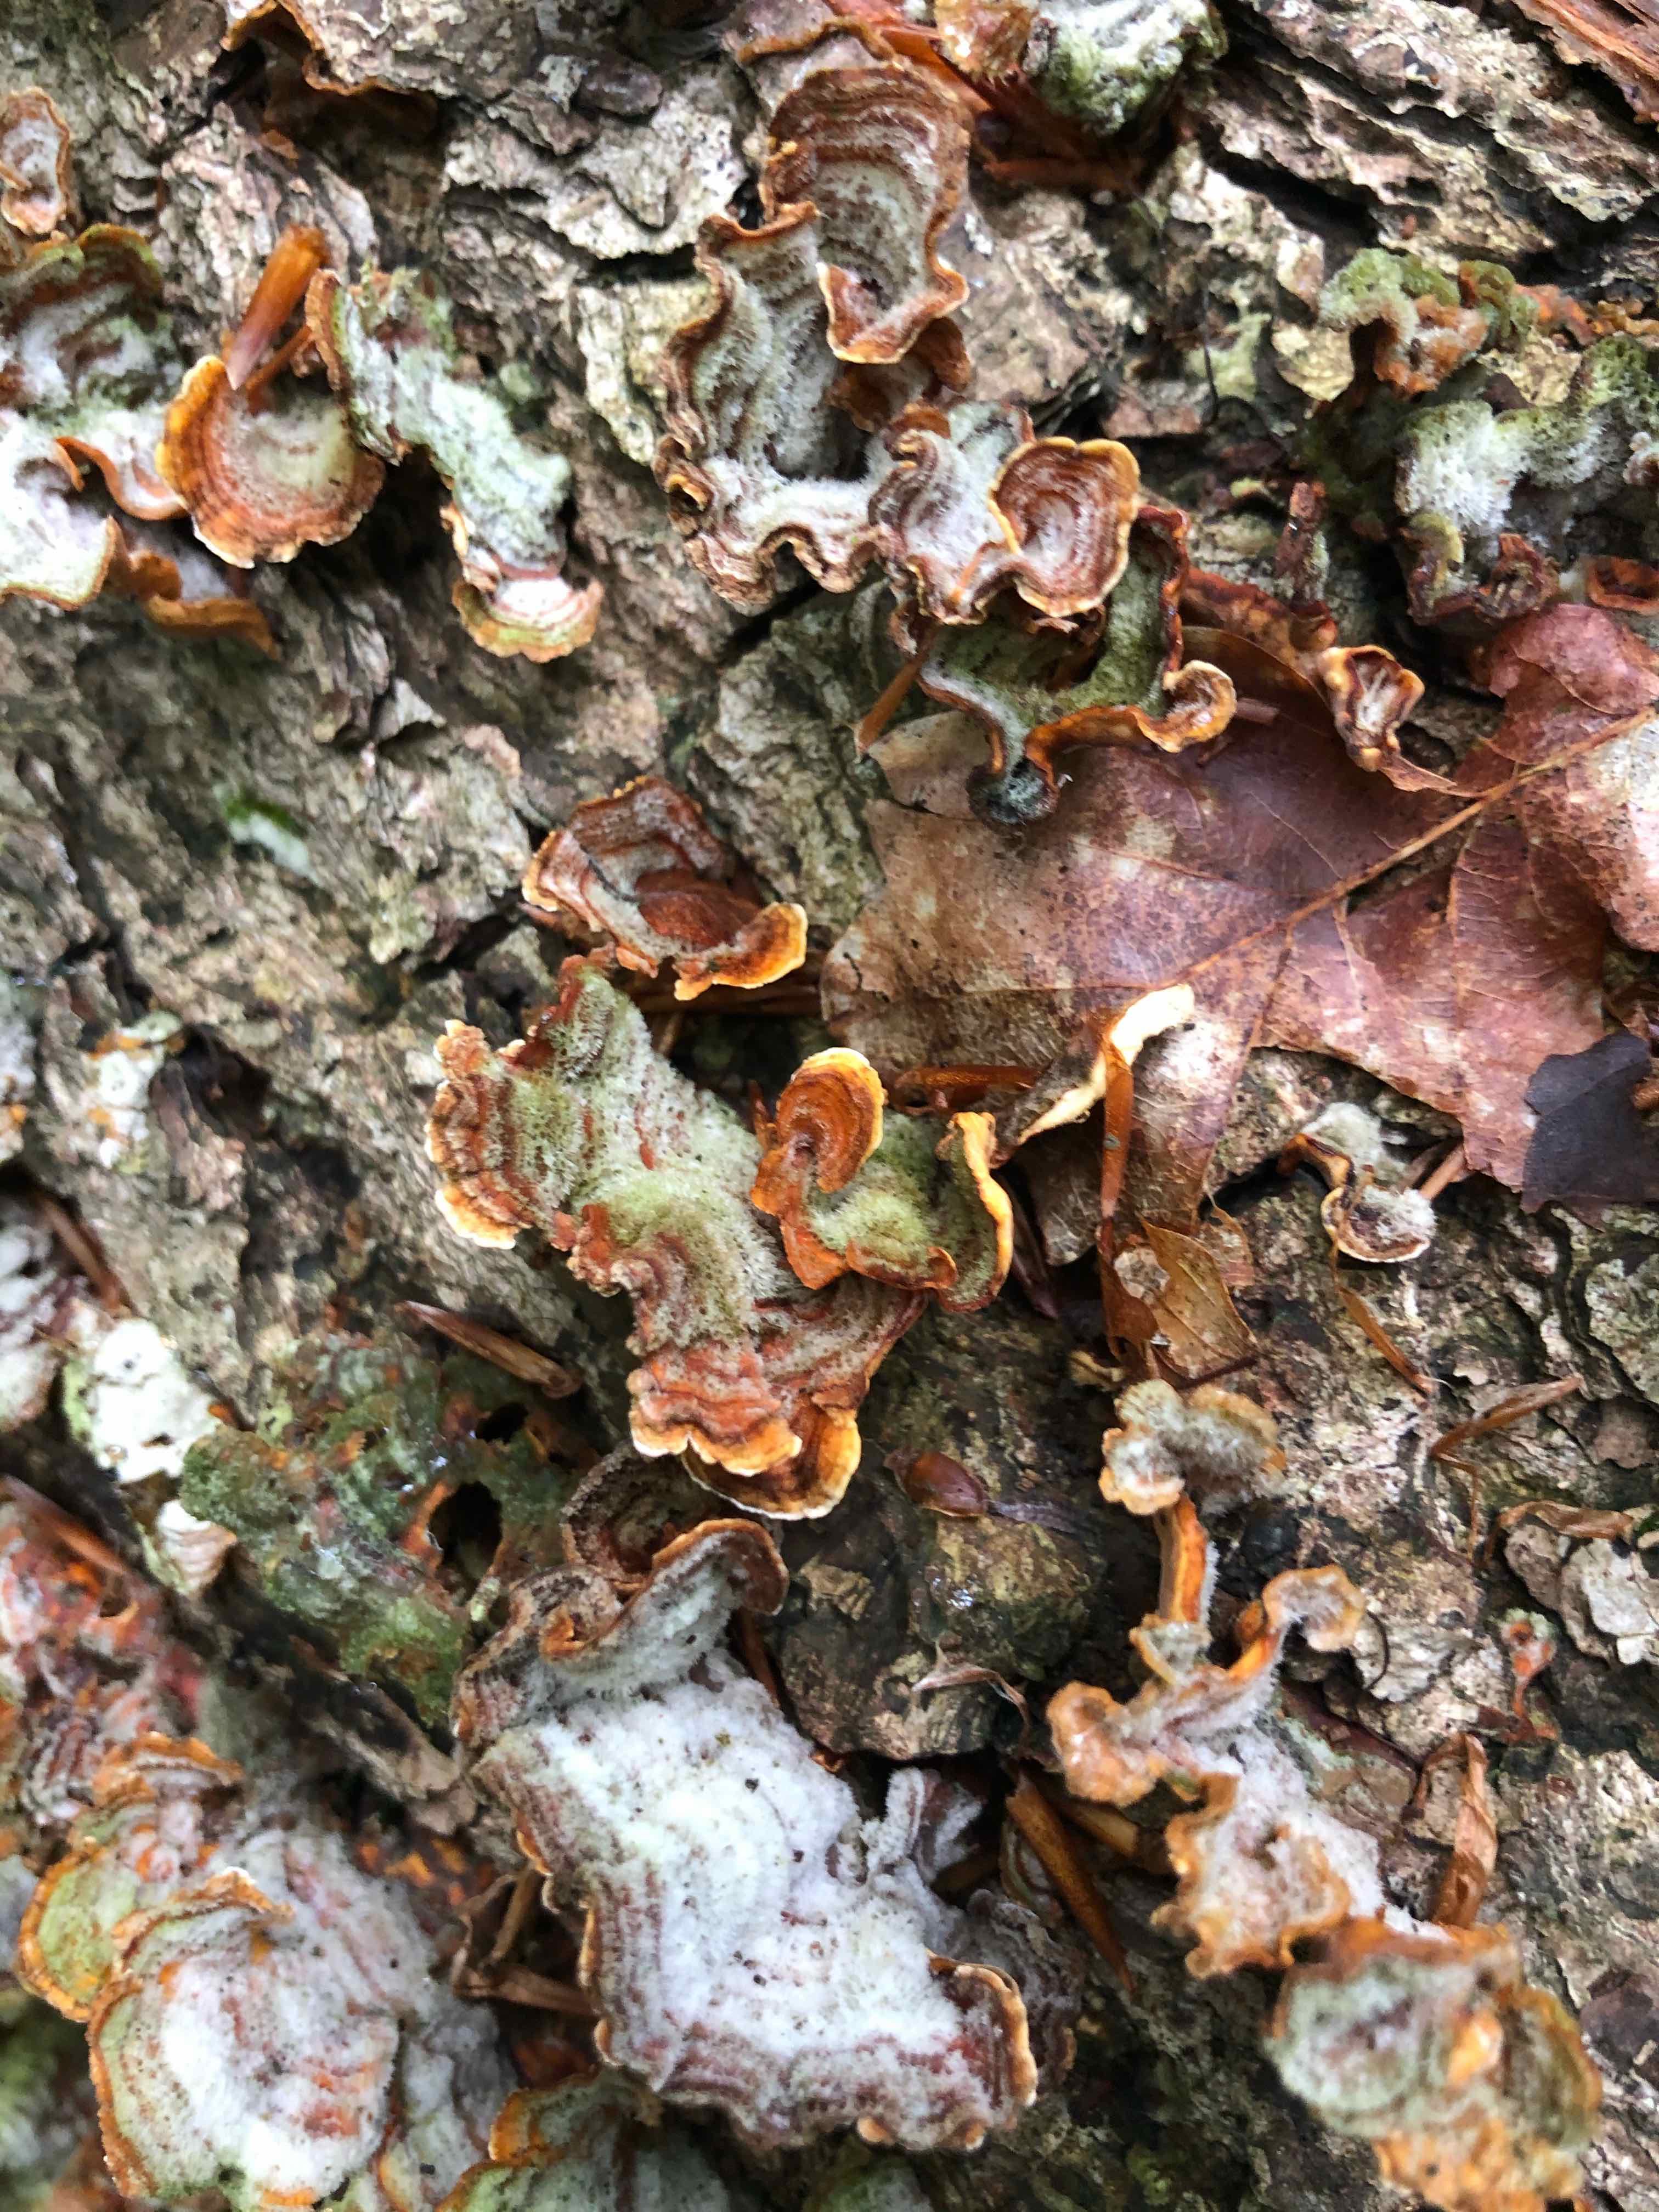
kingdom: Fungi
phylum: Basidiomycota
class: Agaricomycetes
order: Agaricales
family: Cyphellaceae
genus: Chondrostereum
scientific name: Chondrostereum purpureum
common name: purpurlædersvamp
